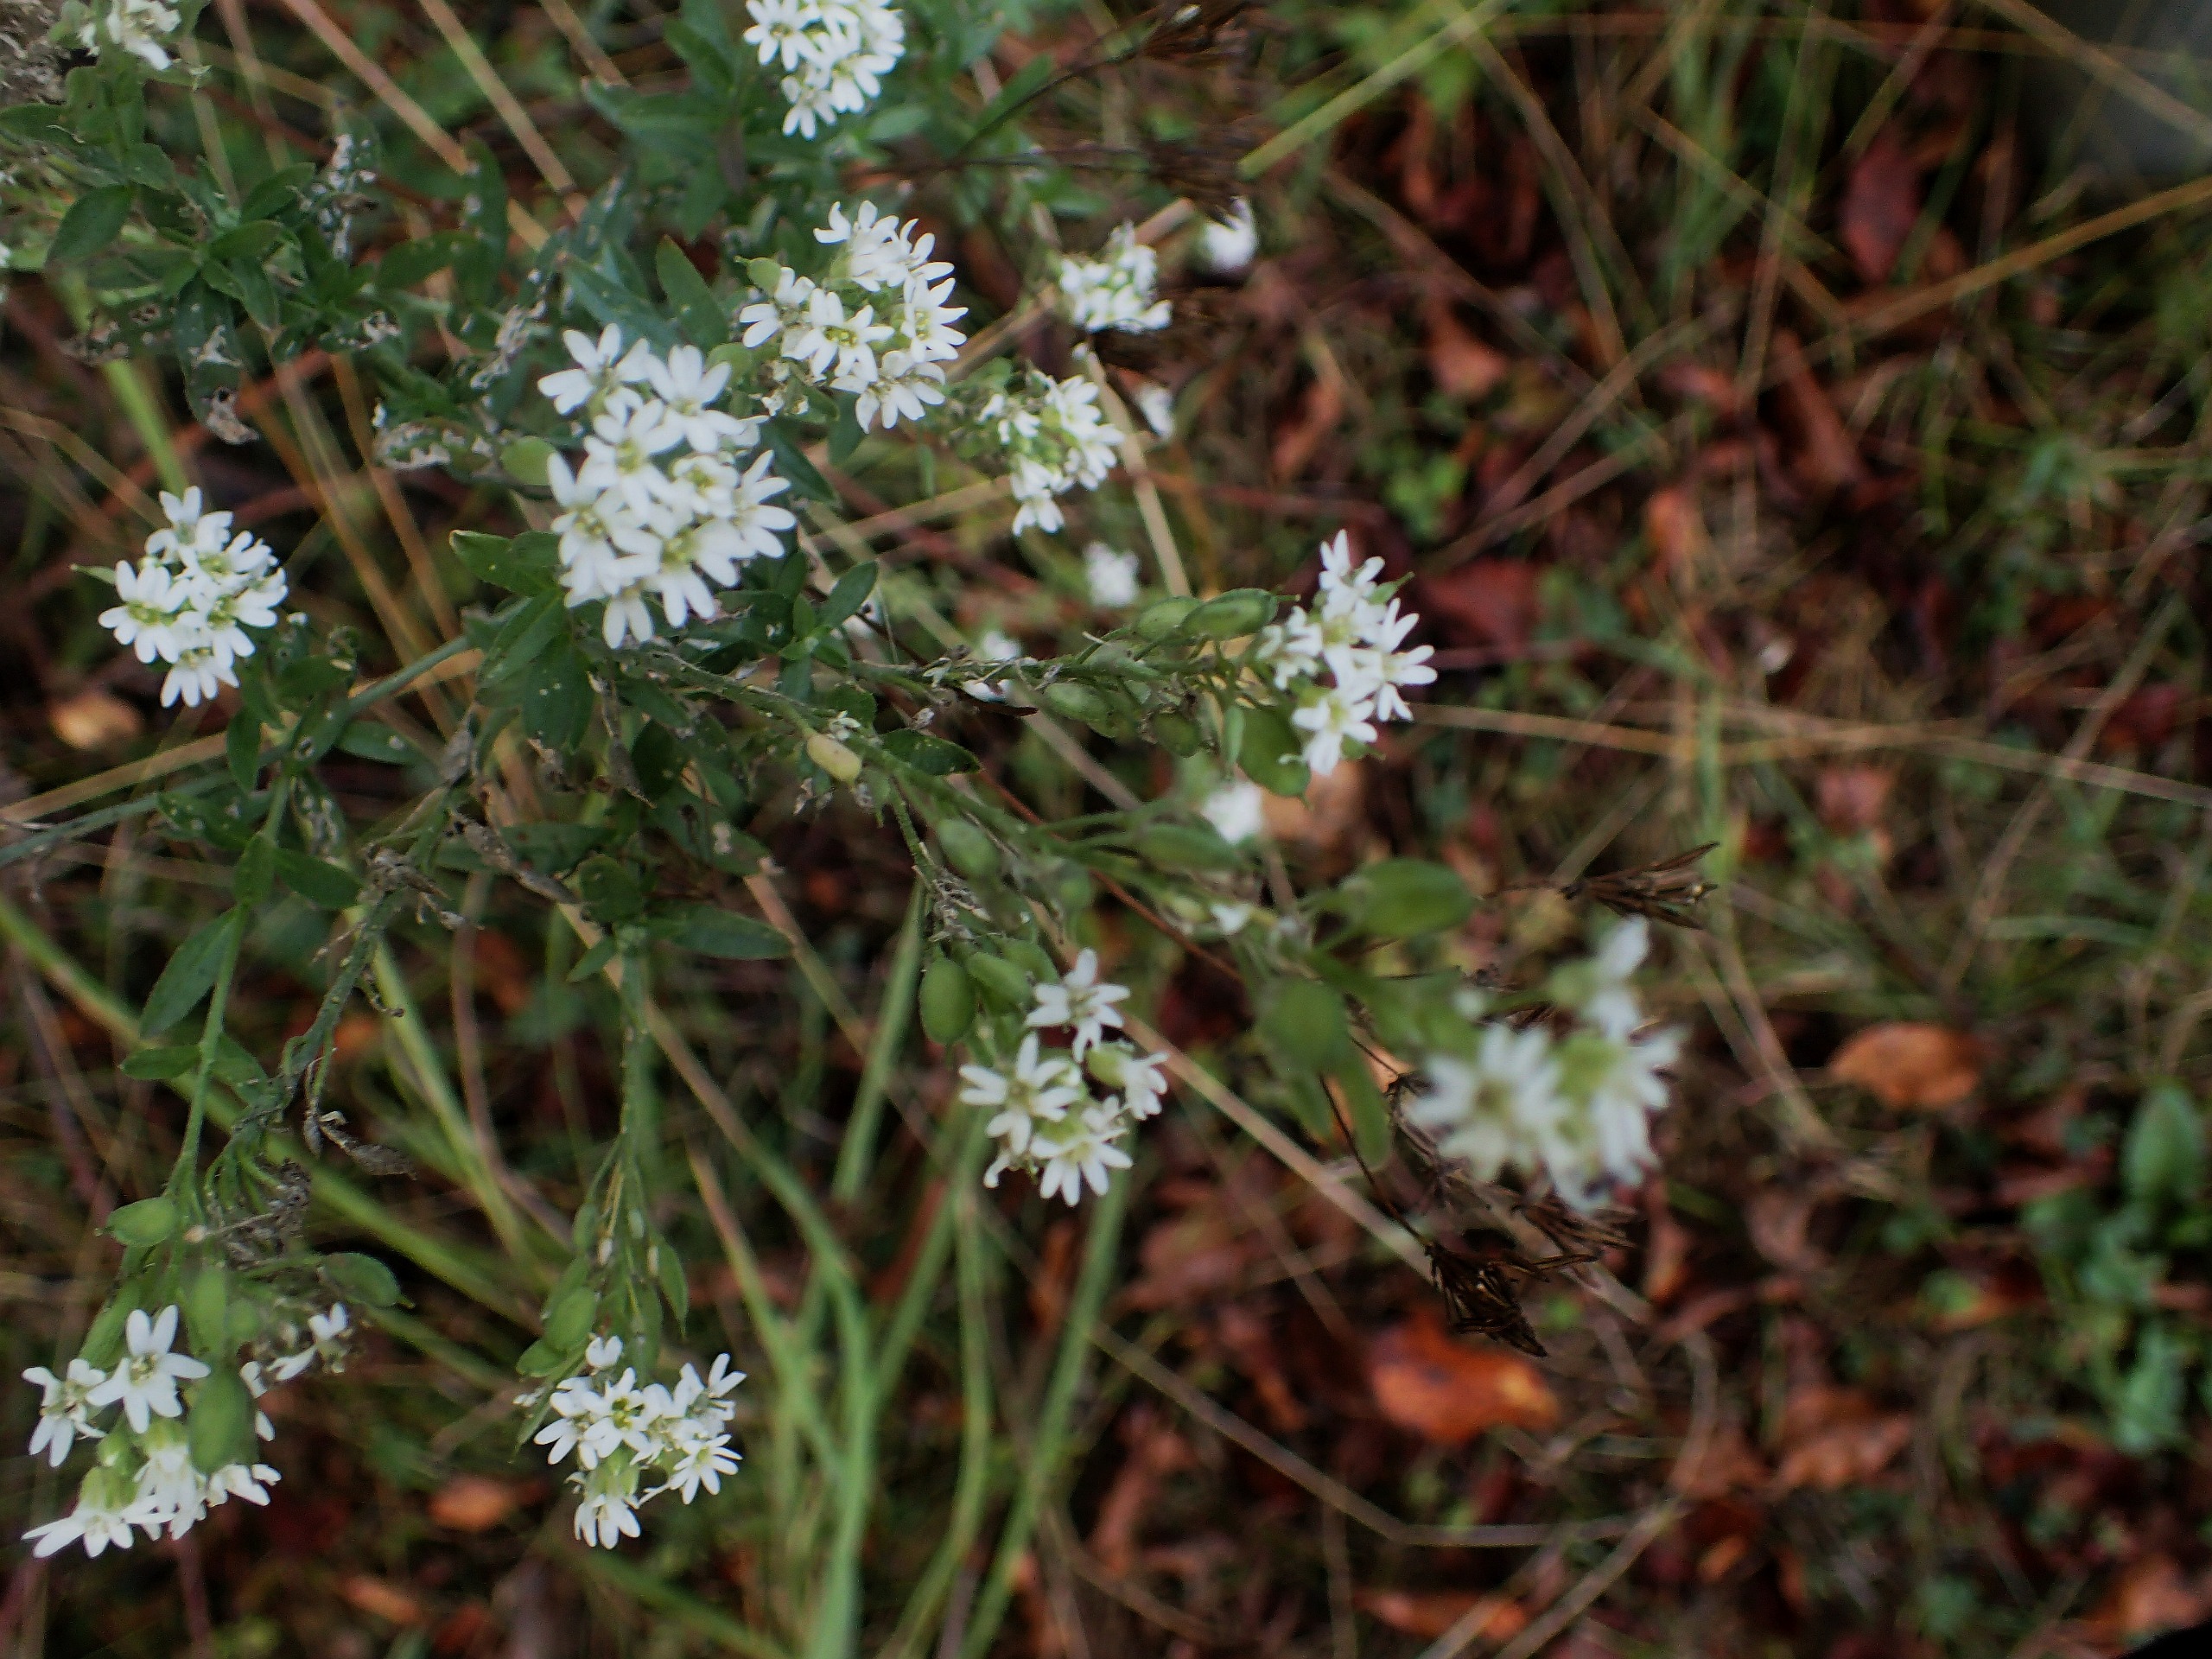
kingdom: Plantae
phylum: Tracheophyta
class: Magnoliopsida
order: Brassicales
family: Brassicaceae
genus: Berteroa
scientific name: Berteroa incana
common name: Kløvplade
